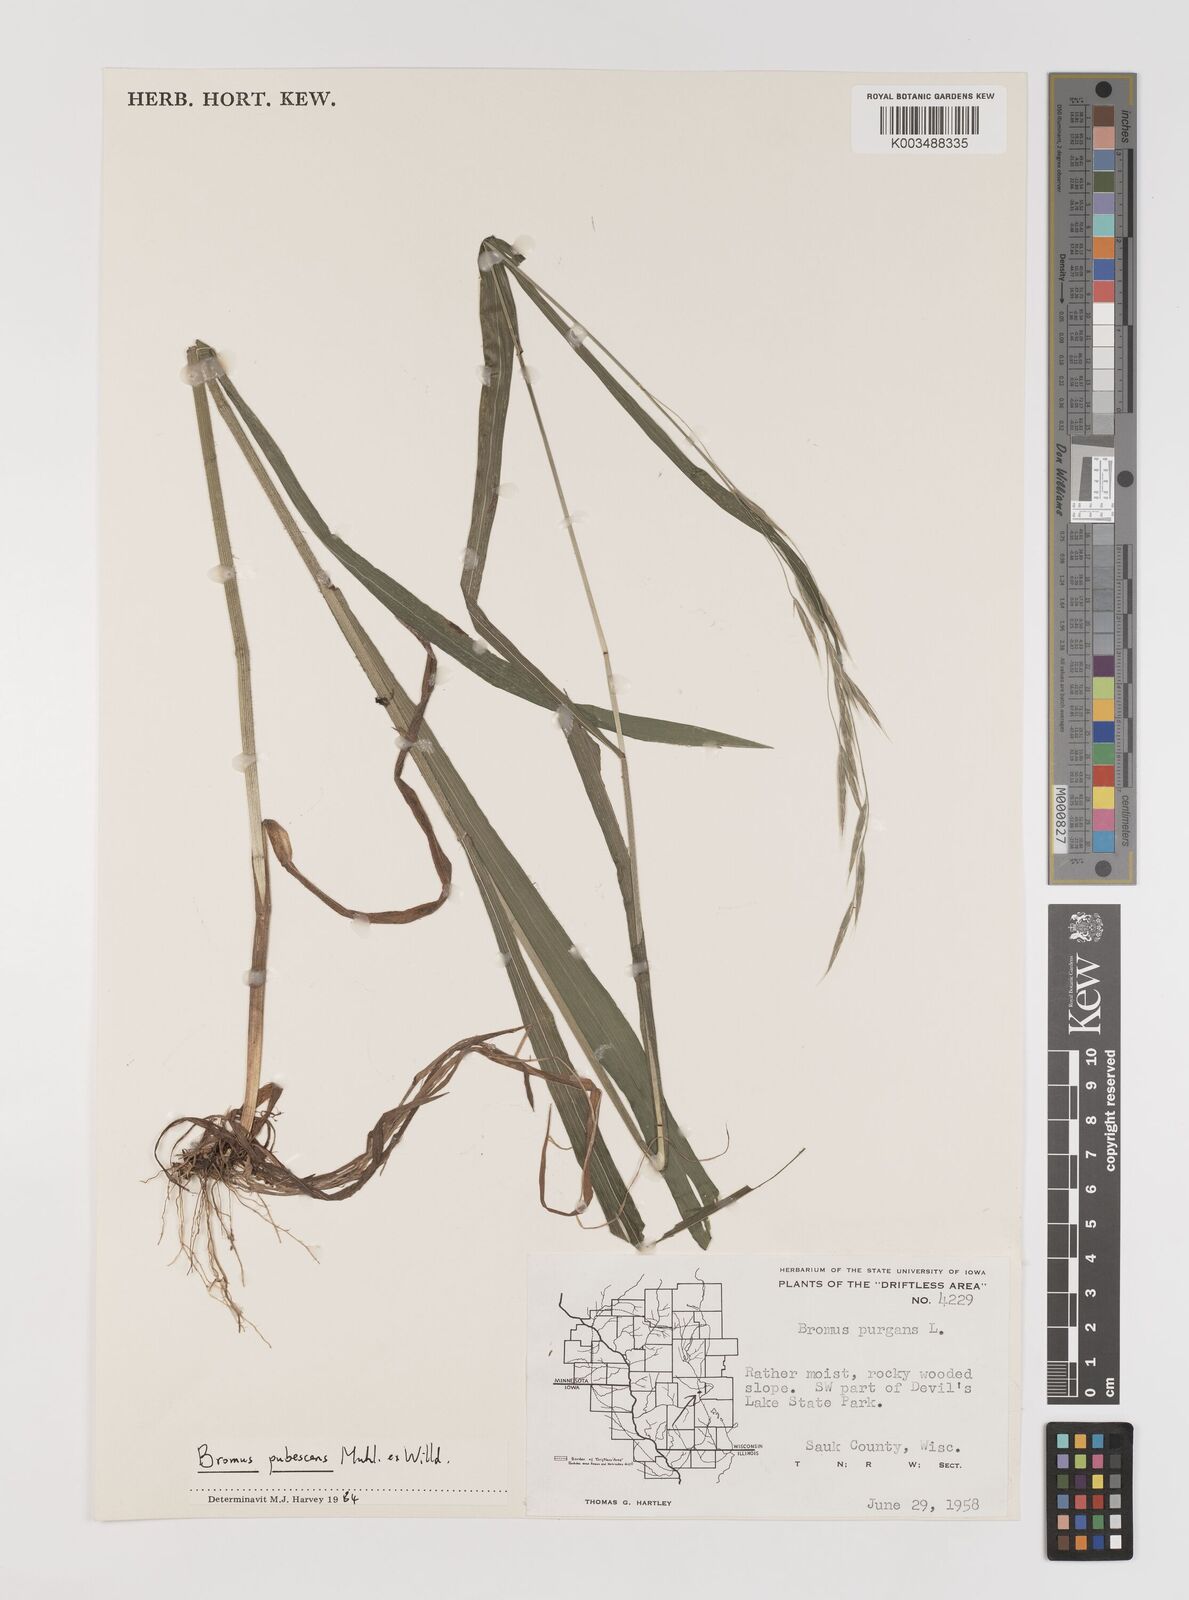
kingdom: Plantae
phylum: Tracheophyta
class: Liliopsida
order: Poales
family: Poaceae
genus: Bromus
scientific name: Bromus pubescens
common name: Hairy wood brome grass
